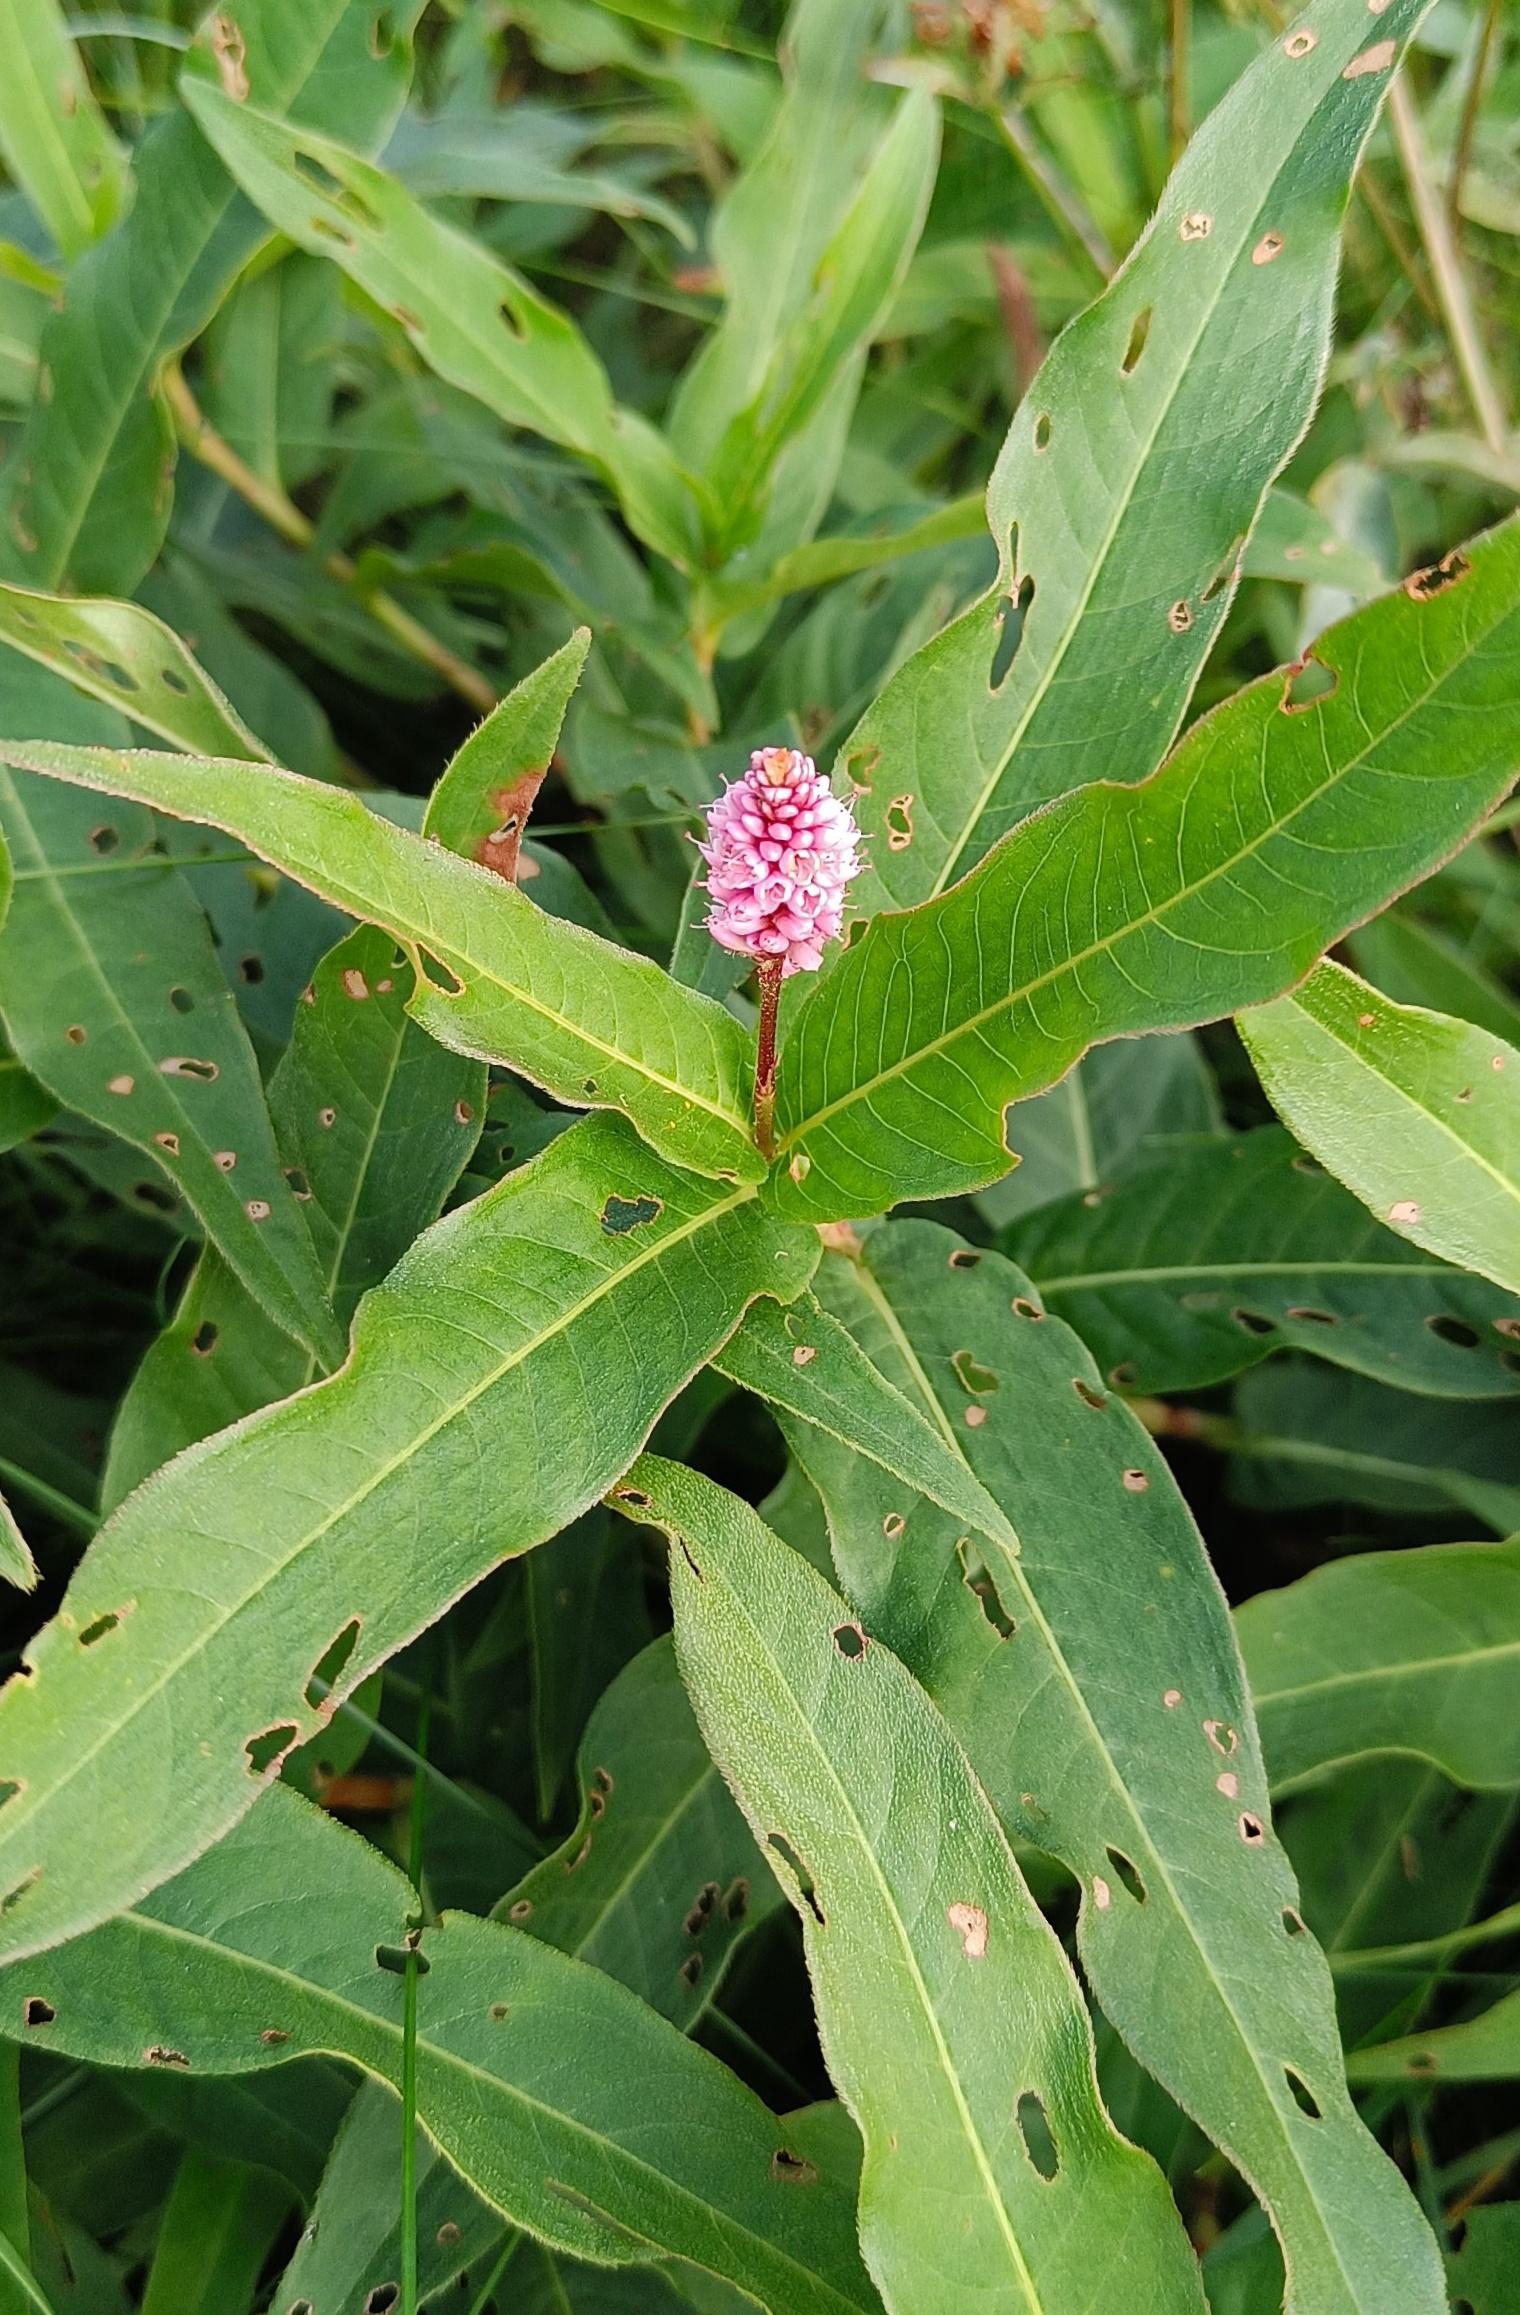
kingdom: Plantae
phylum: Tracheophyta
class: Magnoliopsida
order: Caryophyllales
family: Polygonaceae
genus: Persicaria
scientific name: Persicaria amphibia
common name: Vand-pileurt
